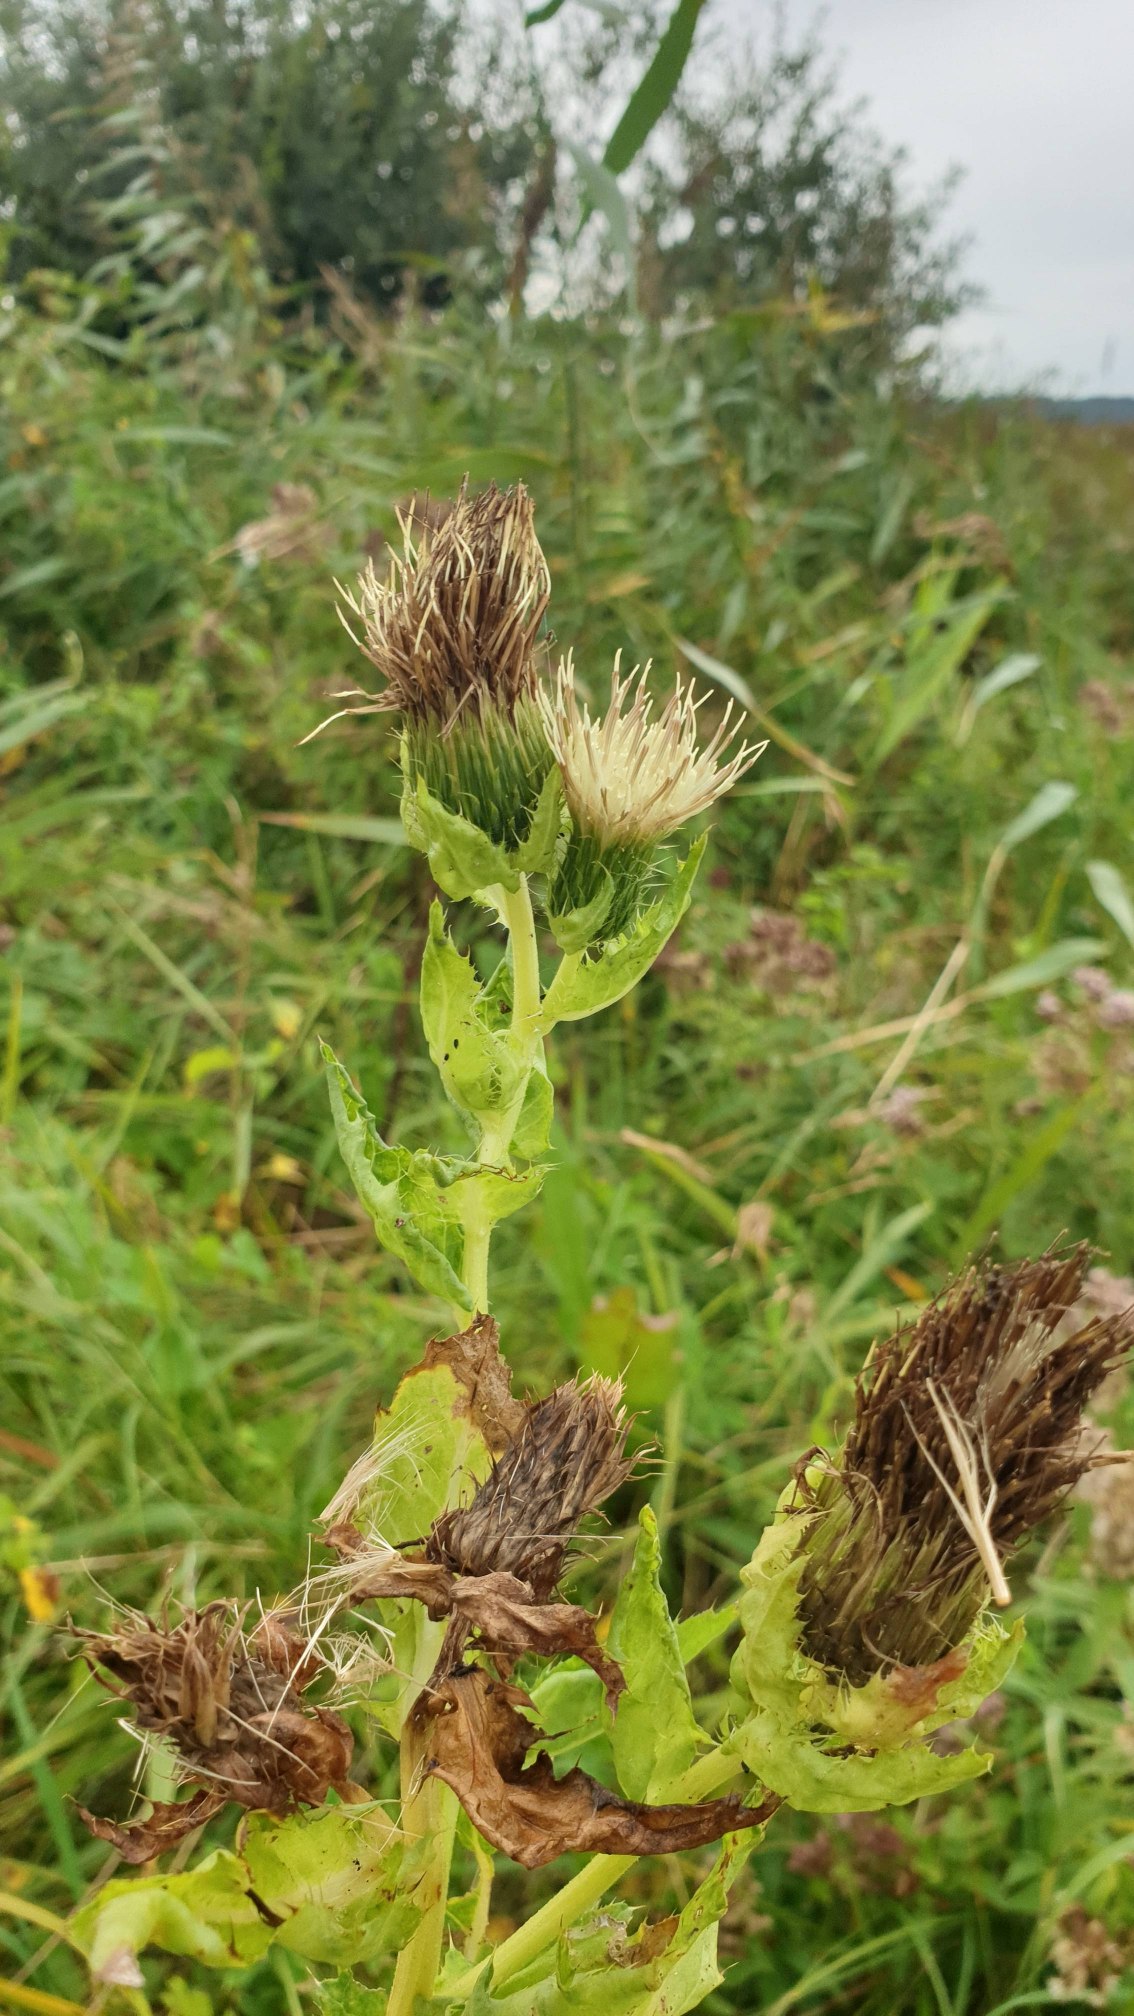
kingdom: Plantae
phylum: Tracheophyta
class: Magnoliopsida
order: Asterales
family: Asteraceae
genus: Cirsium
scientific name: Cirsium oleraceum
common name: Kål-tidsel
